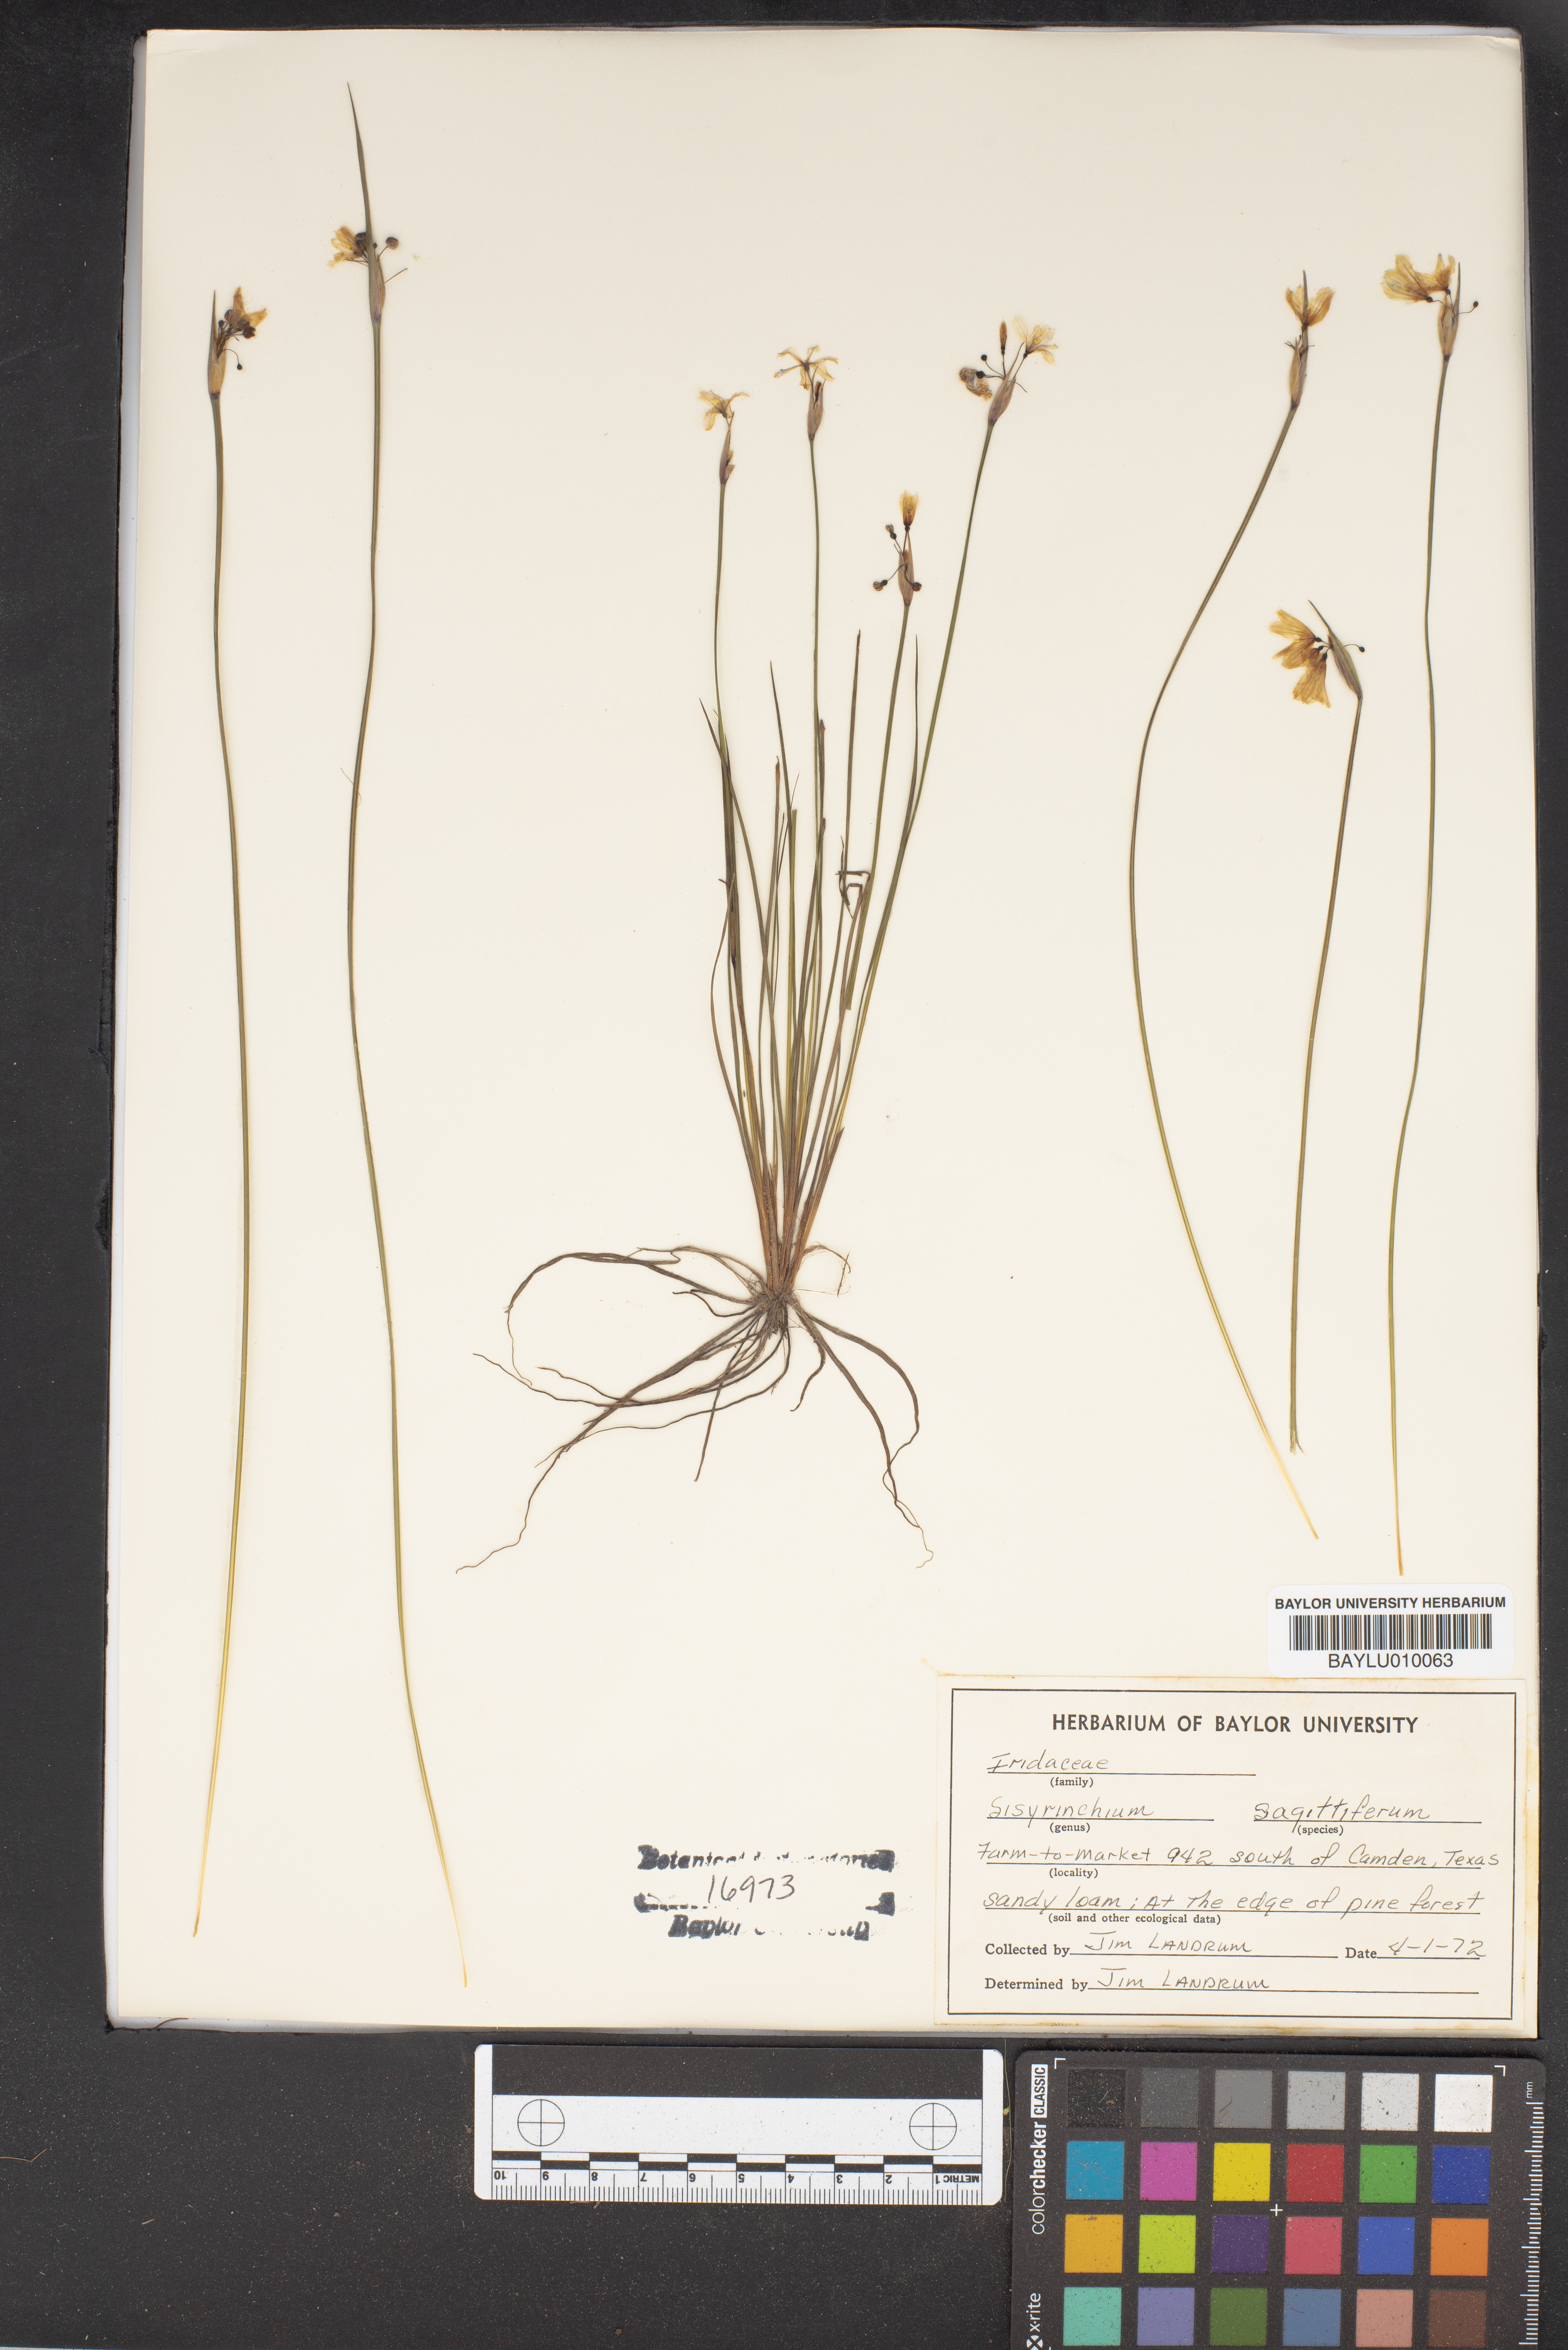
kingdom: Plantae
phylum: Tracheophyta
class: Liliopsida
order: Asparagales
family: Iridaceae
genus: Sisyrinchium
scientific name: Sisyrinchium sagittiferum
